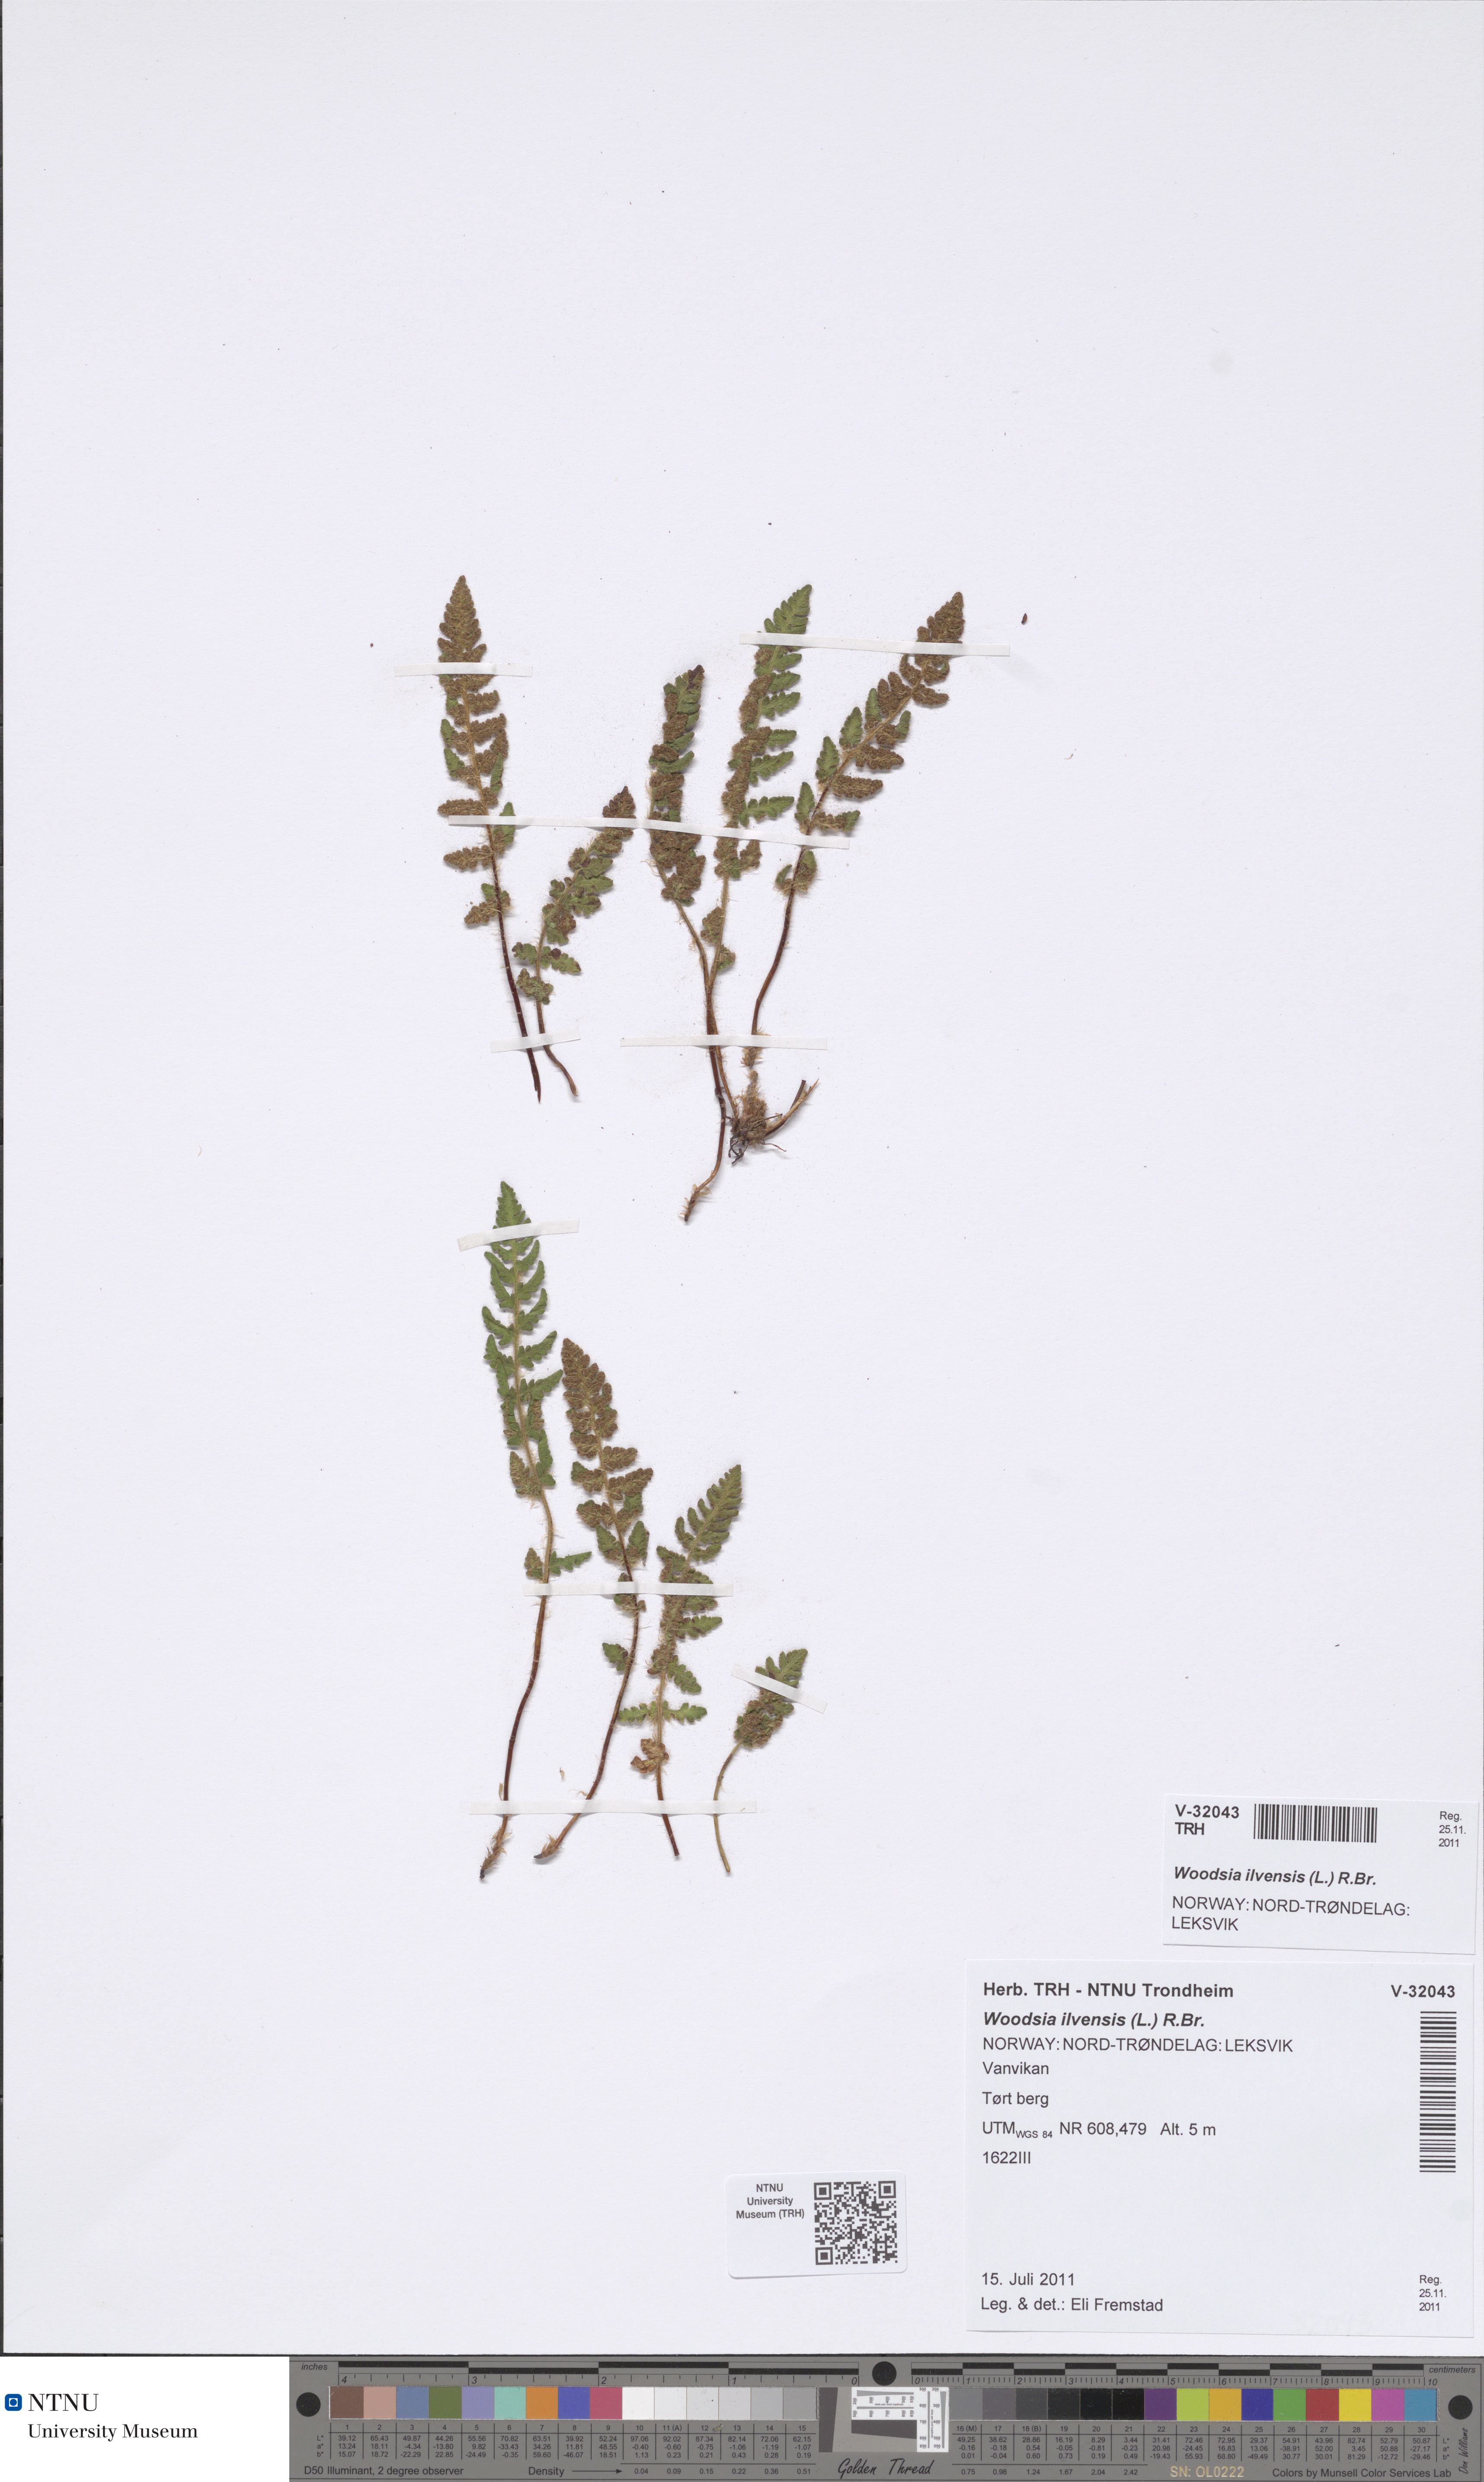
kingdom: Plantae
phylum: Tracheophyta
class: Polypodiopsida
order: Polypodiales
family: Woodsiaceae
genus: Woodsia
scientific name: Woodsia ilvensis
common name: Fragrant woodsia
